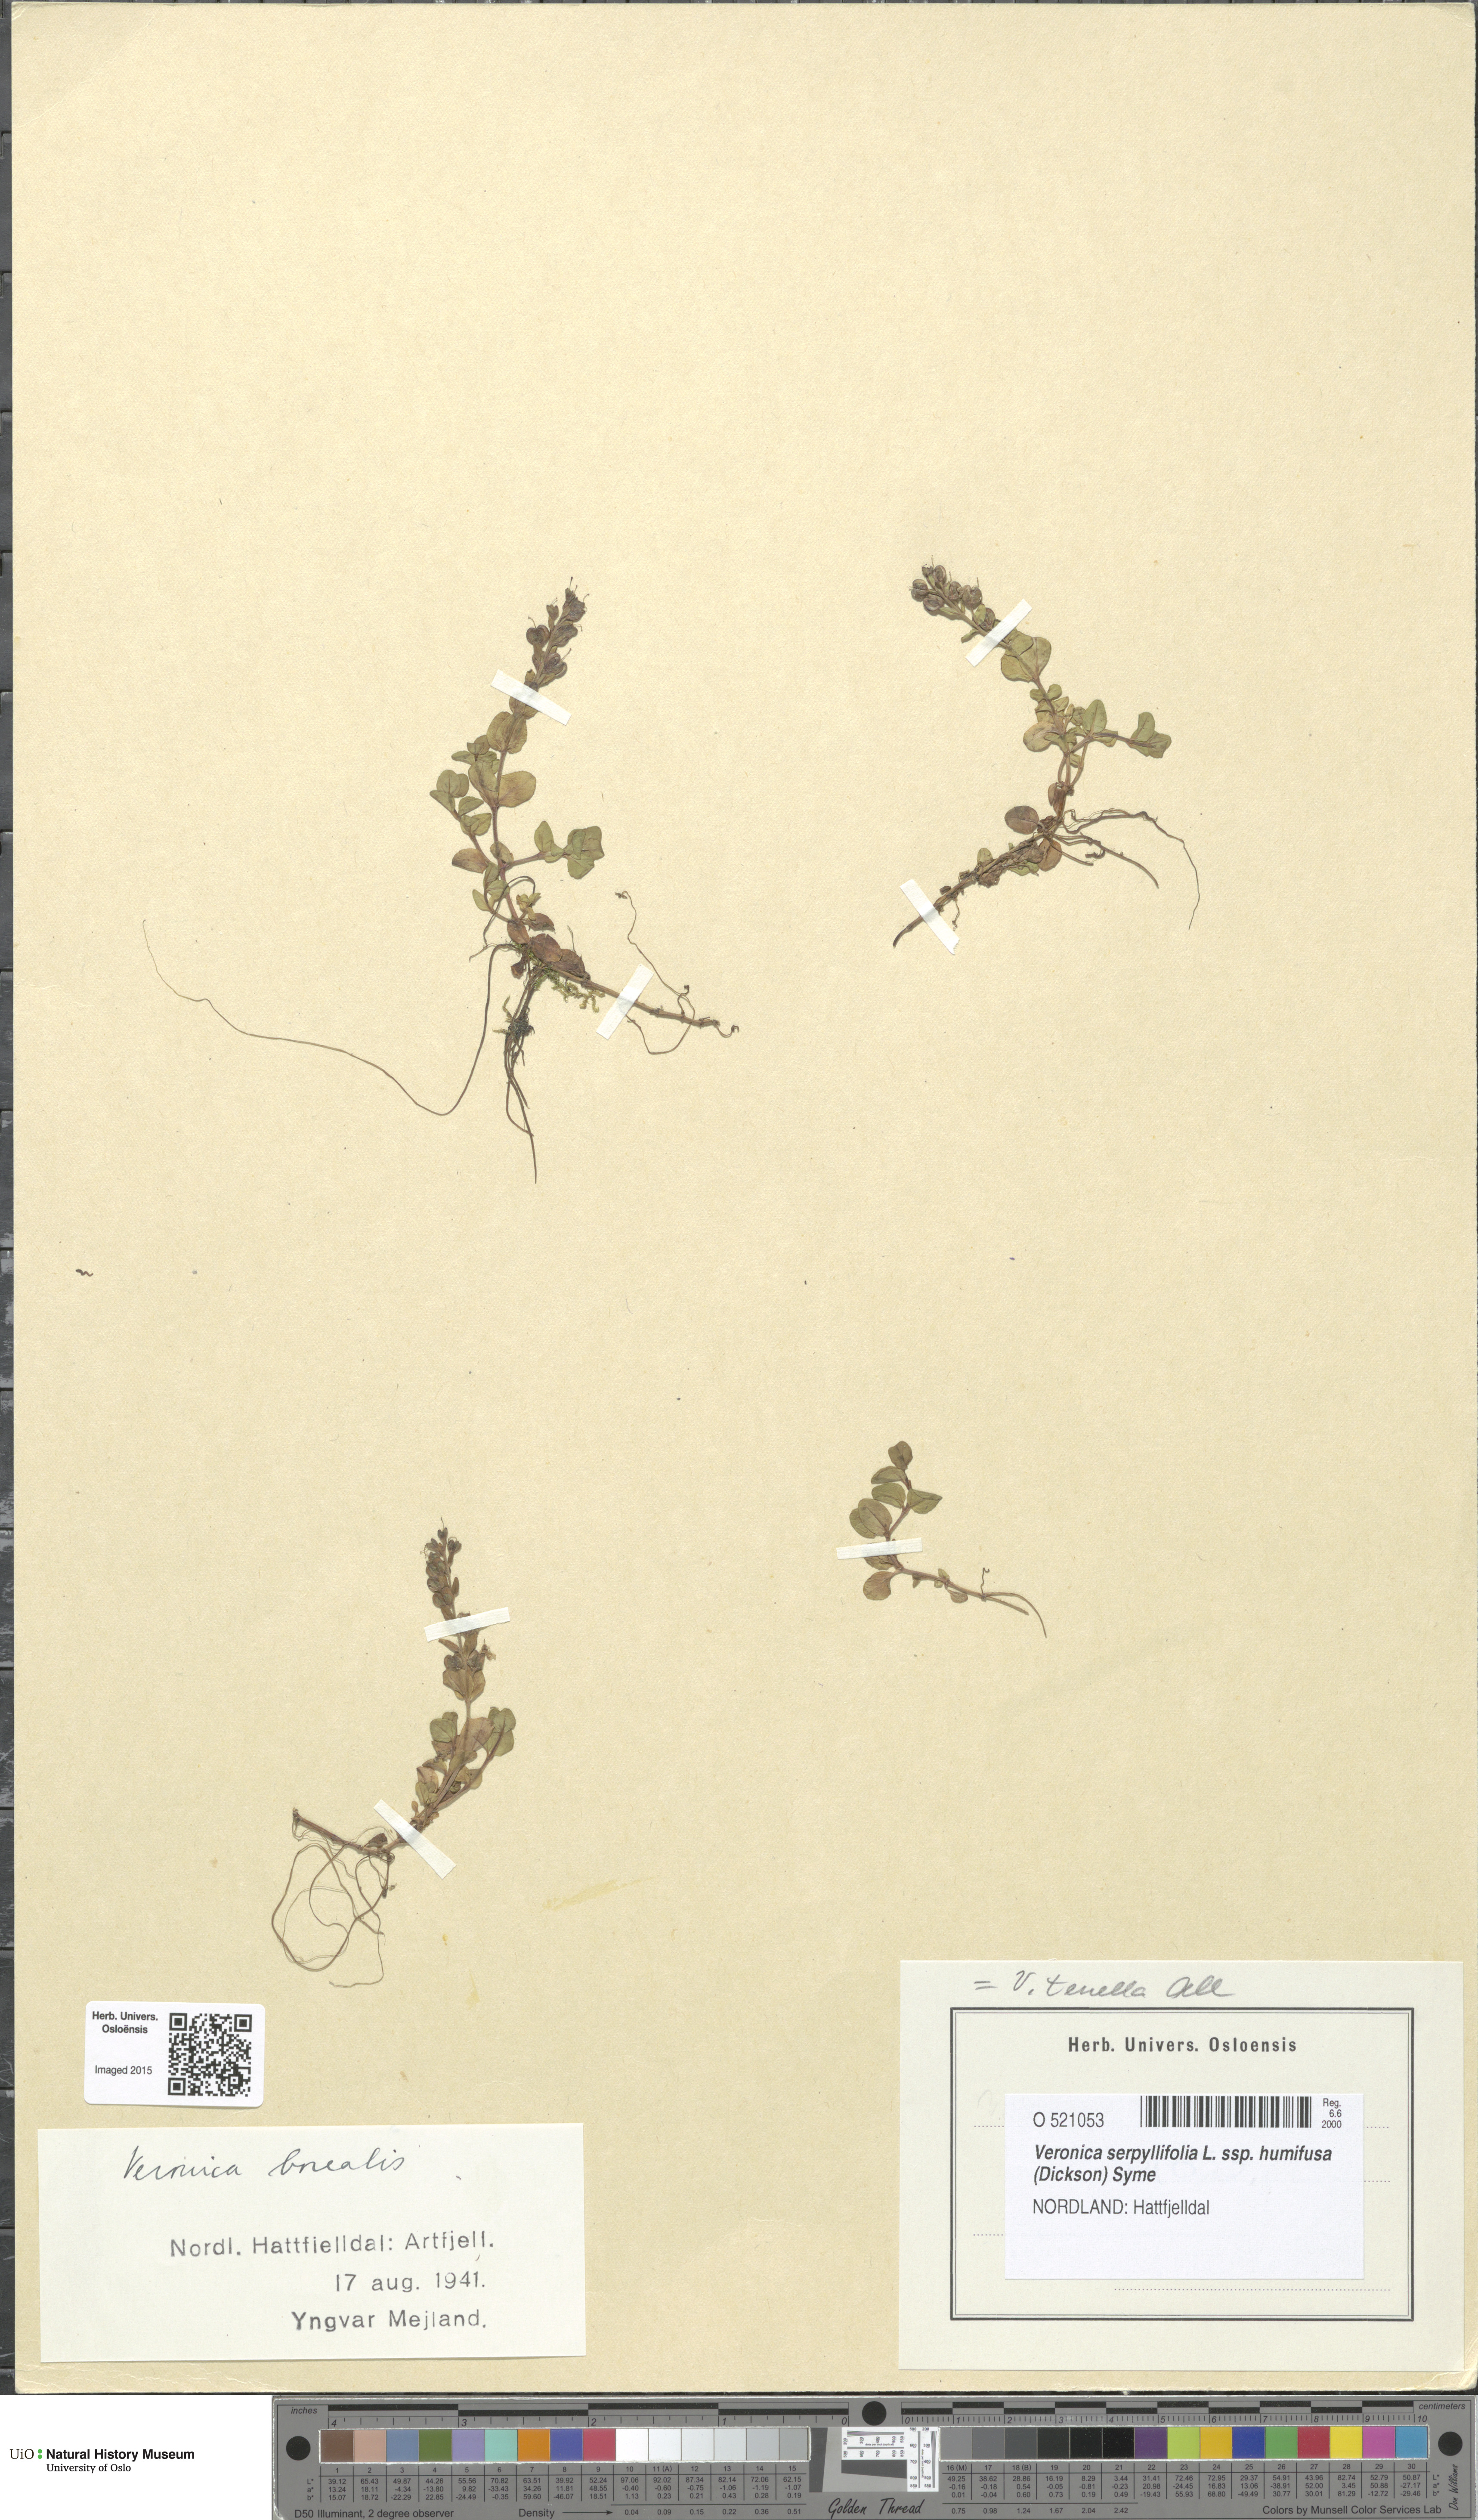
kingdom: Plantae
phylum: Tracheophyta
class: Magnoliopsida
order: Lamiales
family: Plantaginaceae
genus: Veronica
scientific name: Veronica serpyllifolia
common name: Thyme-leaved speedwell
